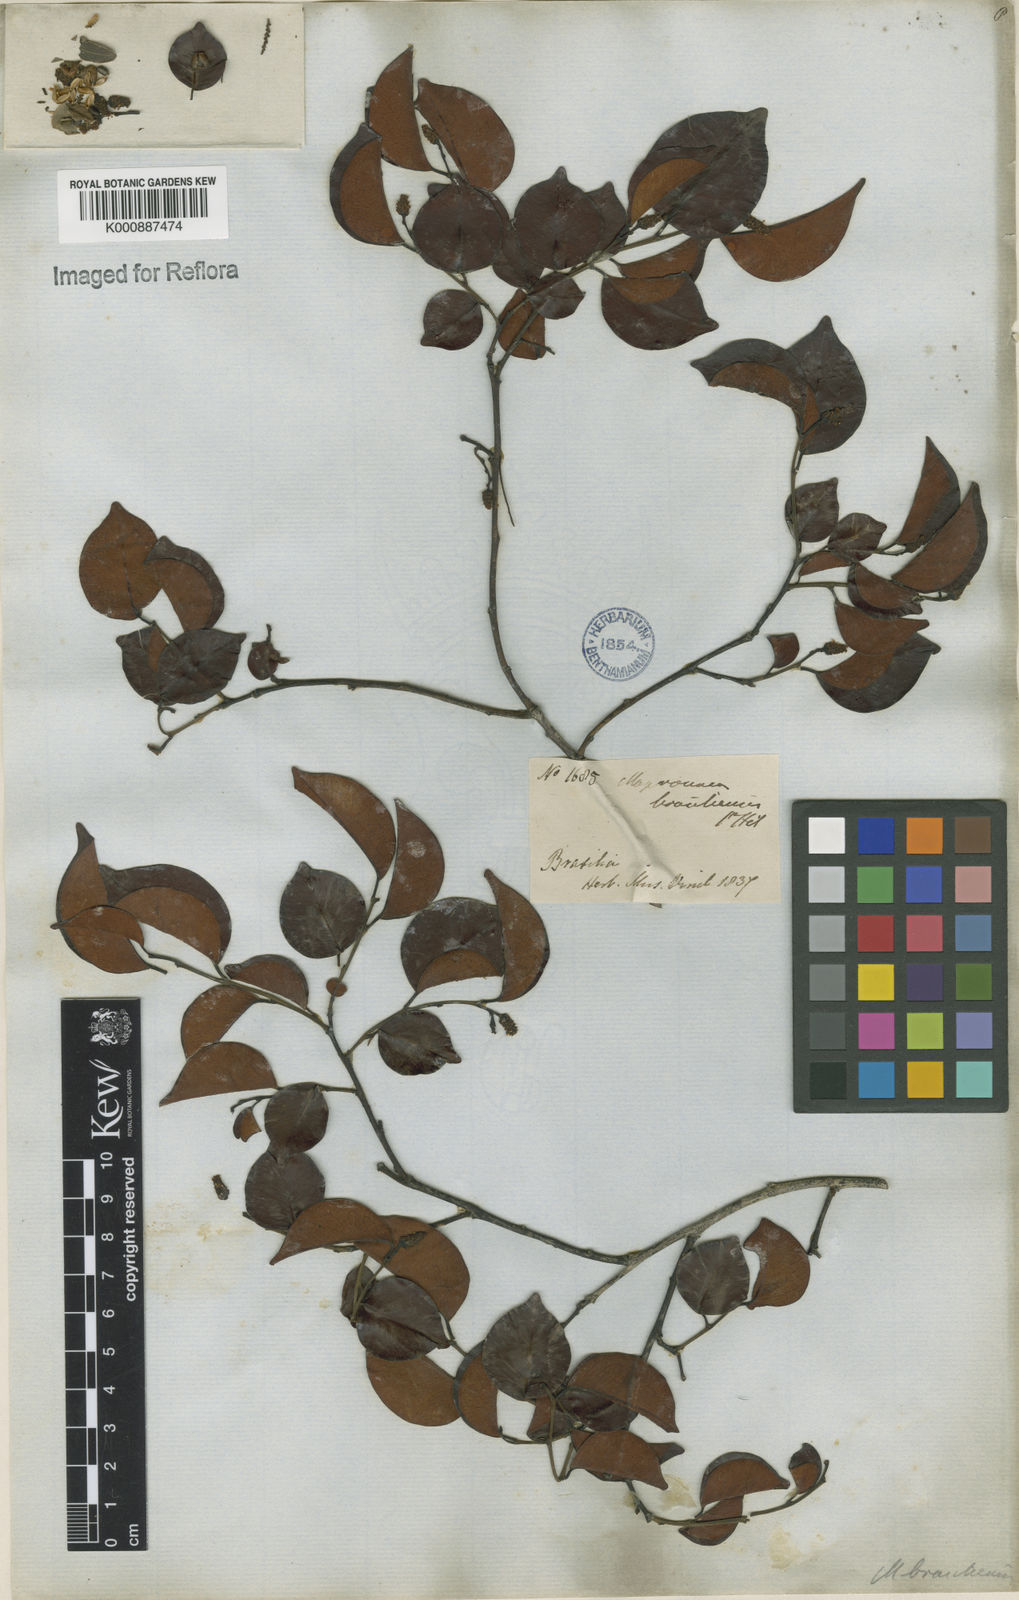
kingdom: Plantae
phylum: Tracheophyta
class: Magnoliopsida
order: Malpighiales
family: Euphorbiaceae
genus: Maprounea
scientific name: Maprounea brasiliensis
